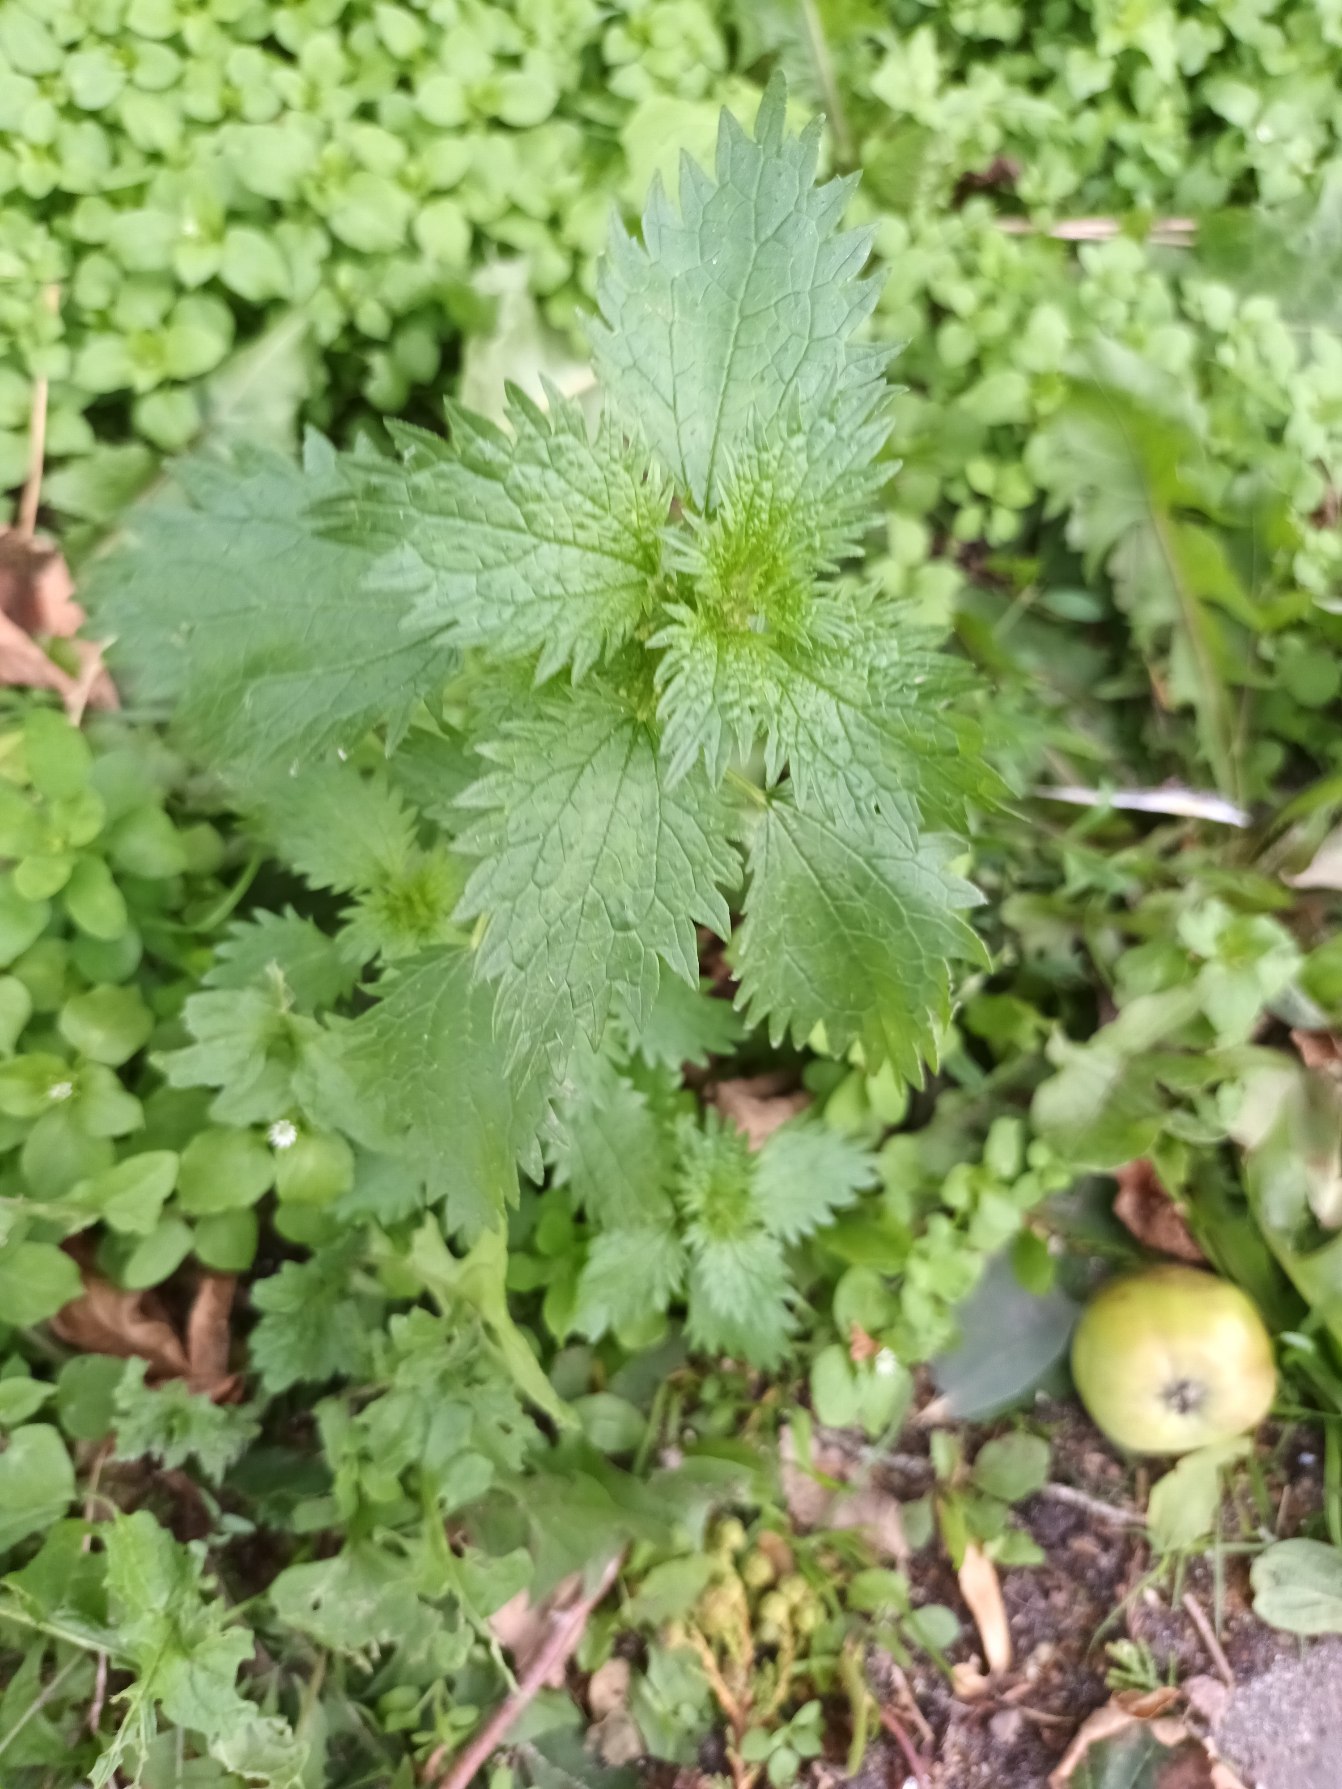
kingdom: Plantae
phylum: Tracheophyta
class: Magnoliopsida
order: Rosales
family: Urticaceae
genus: Urtica
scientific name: Urtica urens
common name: Liden nælde
